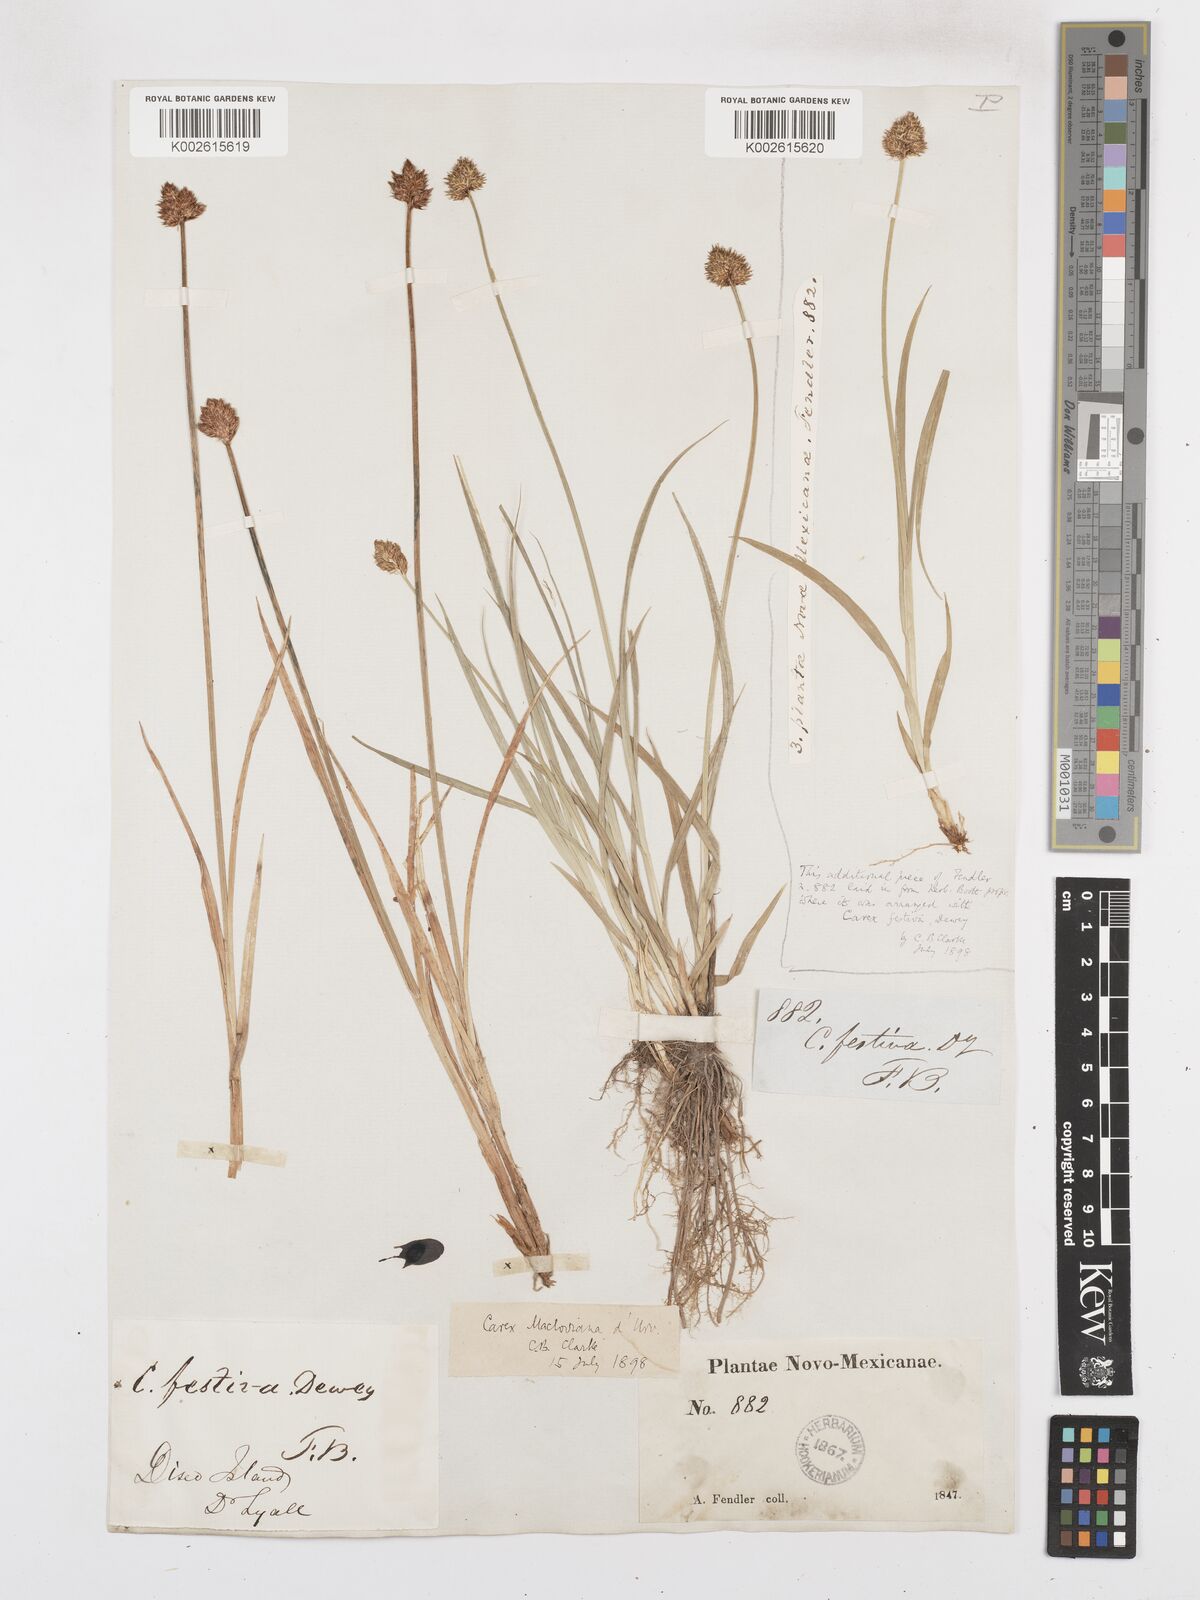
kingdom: Plantae
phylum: Tracheophyta
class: Liliopsida
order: Poales
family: Cyperaceae
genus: Carex
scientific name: Carex harfordii
